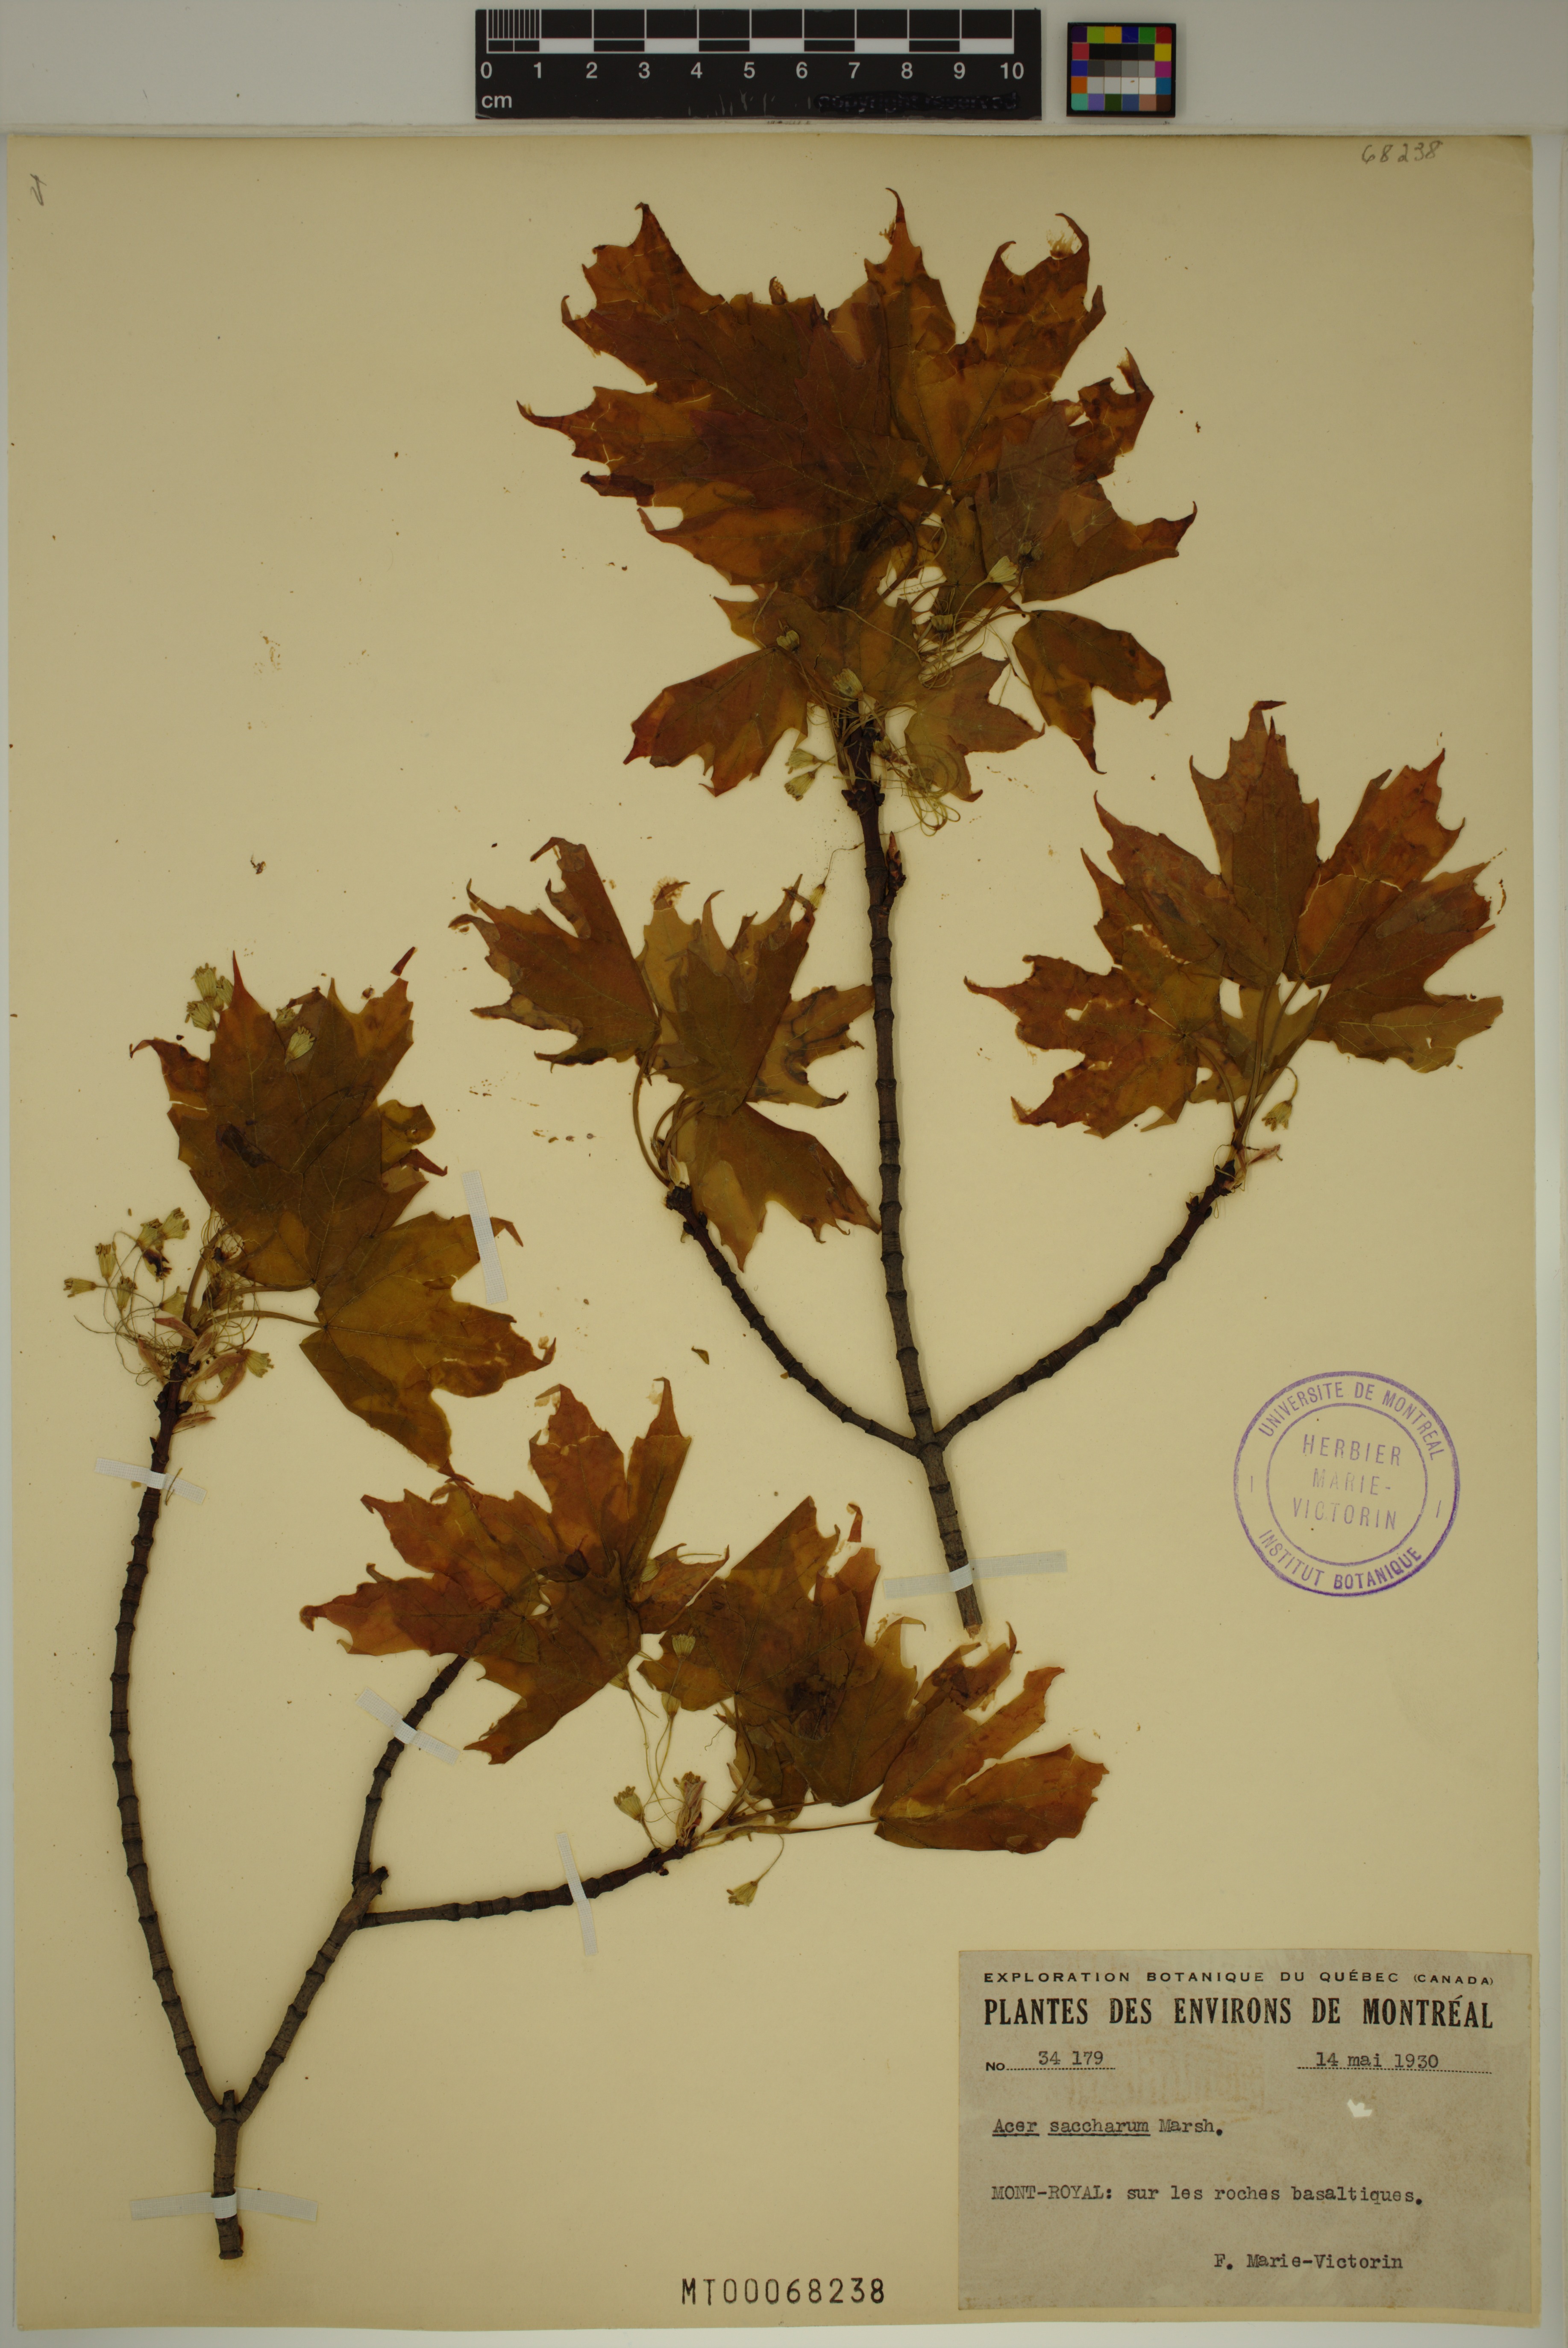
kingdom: Plantae
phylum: Tracheophyta
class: Magnoliopsida
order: Sapindales
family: Sapindaceae
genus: Acer
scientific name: Acer saccharum
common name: Sugar maple
